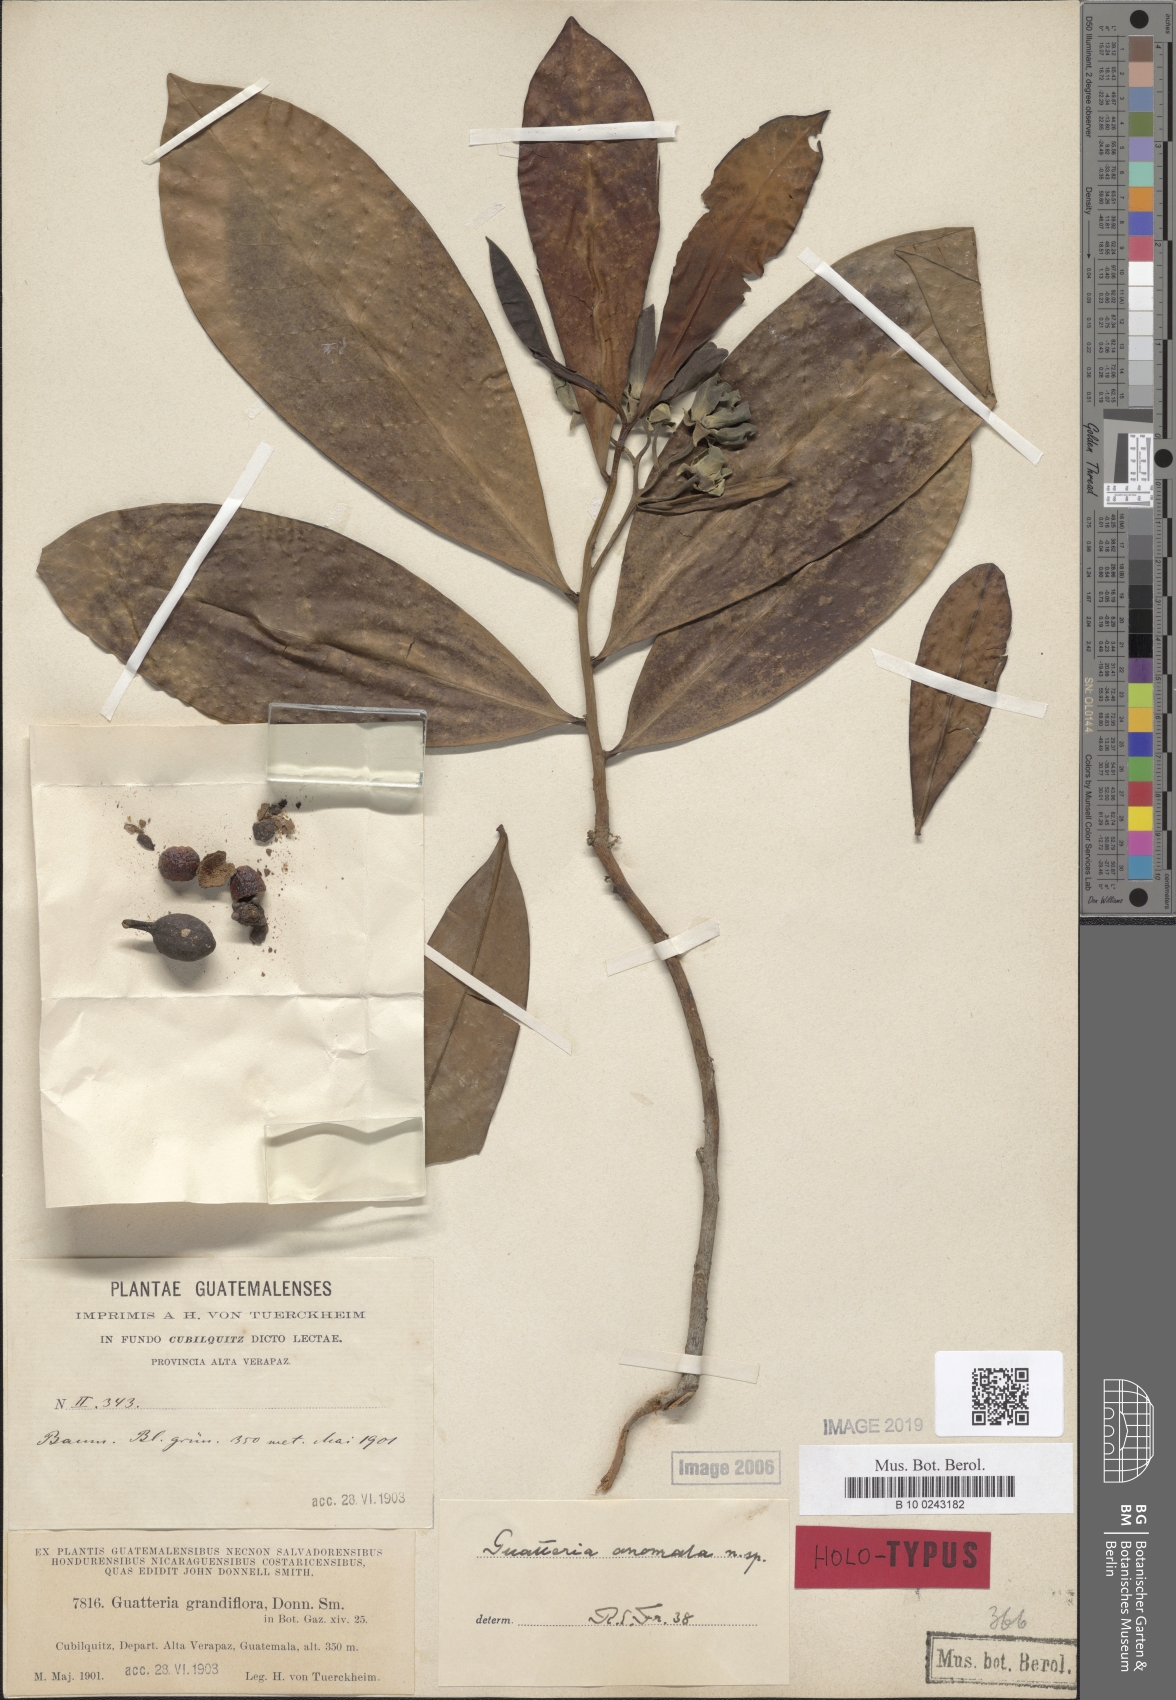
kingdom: Plantae
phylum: Tracheophyta
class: Magnoliopsida
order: Magnoliales
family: Annonaceae
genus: Guatteria
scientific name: Guatteria anomala
